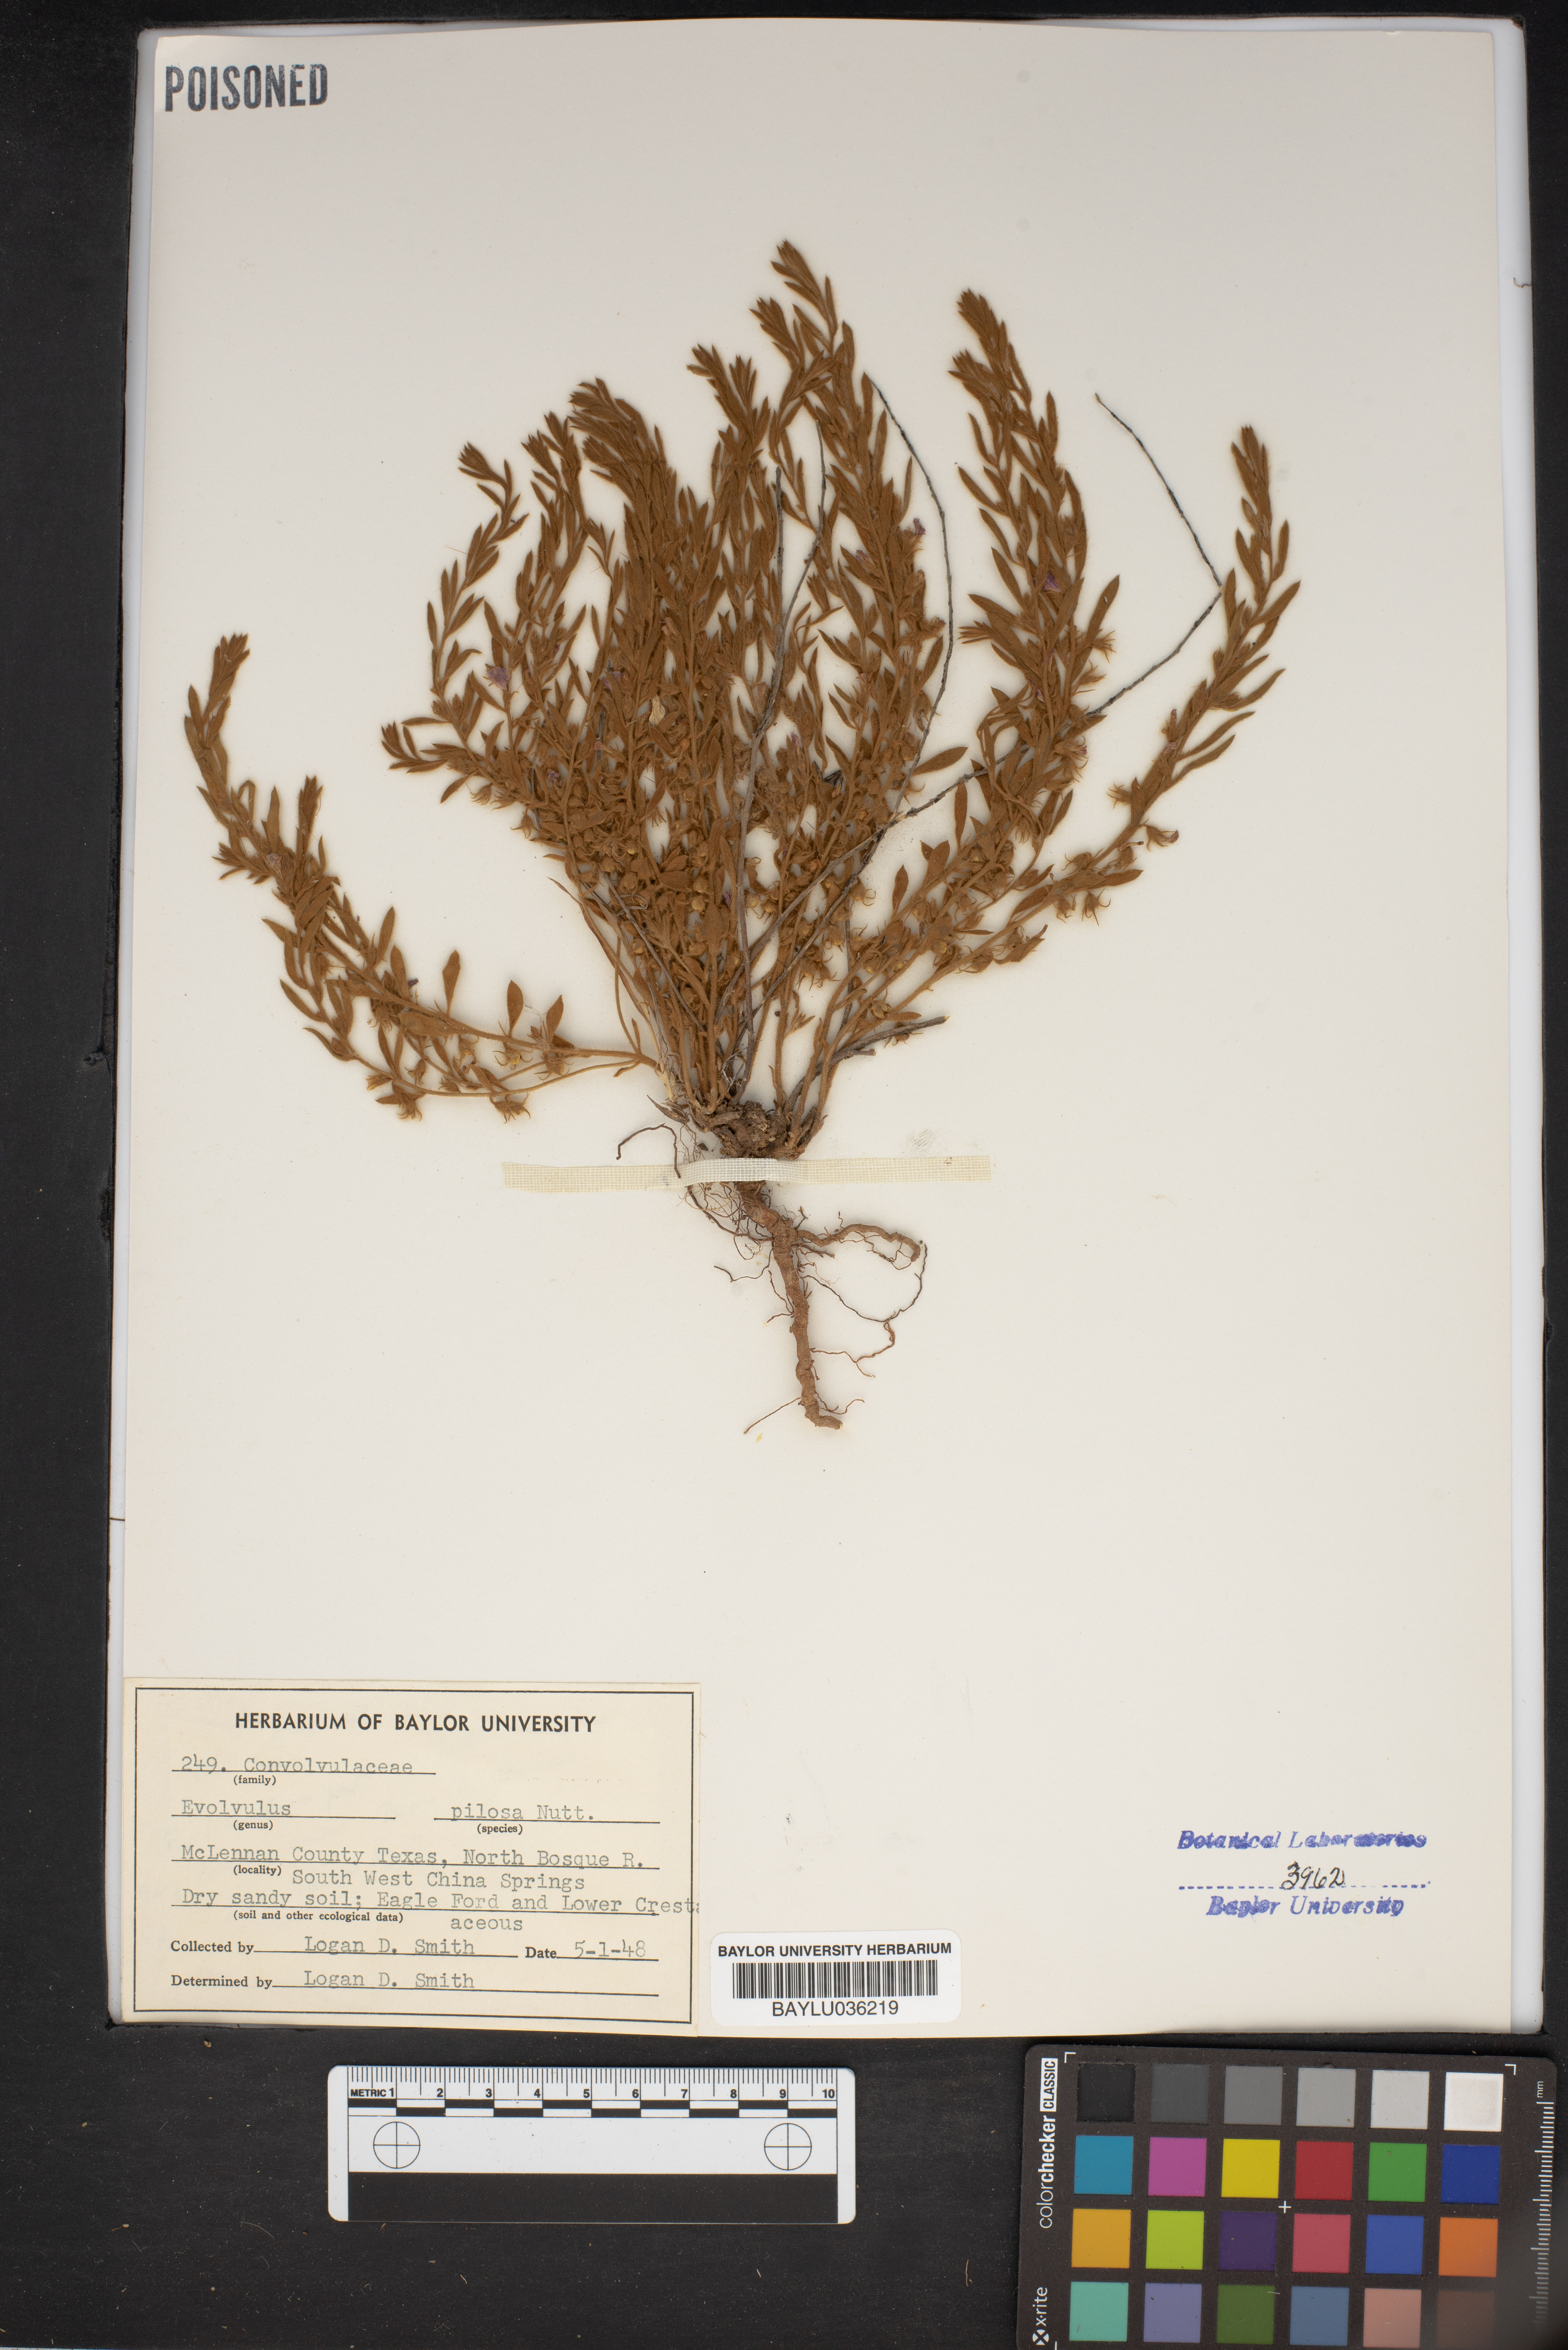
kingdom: Plantae
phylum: Tracheophyta
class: Magnoliopsida
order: Solanales
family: Convolvulaceae
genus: Evolvulus
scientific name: Evolvulus nuttallianus
